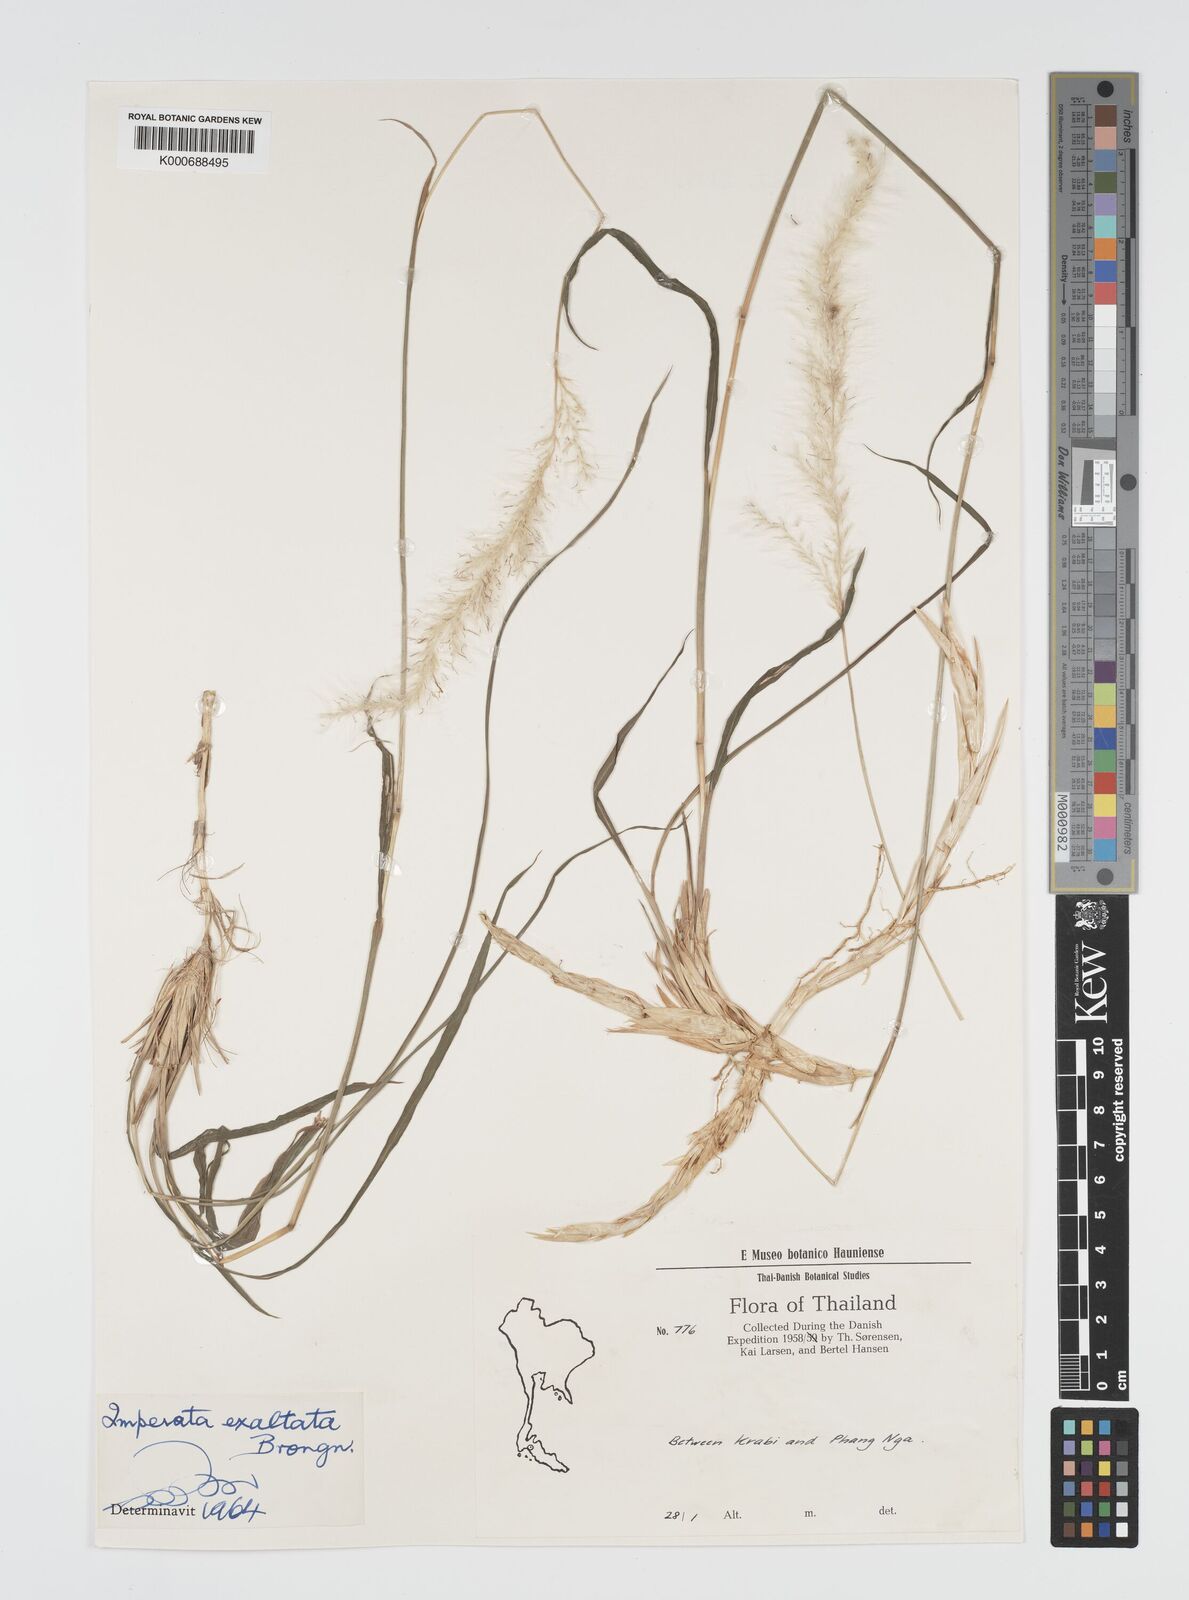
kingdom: Plantae
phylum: Tracheophyta
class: Liliopsida
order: Poales
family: Poaceae
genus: Imperata
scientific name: Imperata conferta
